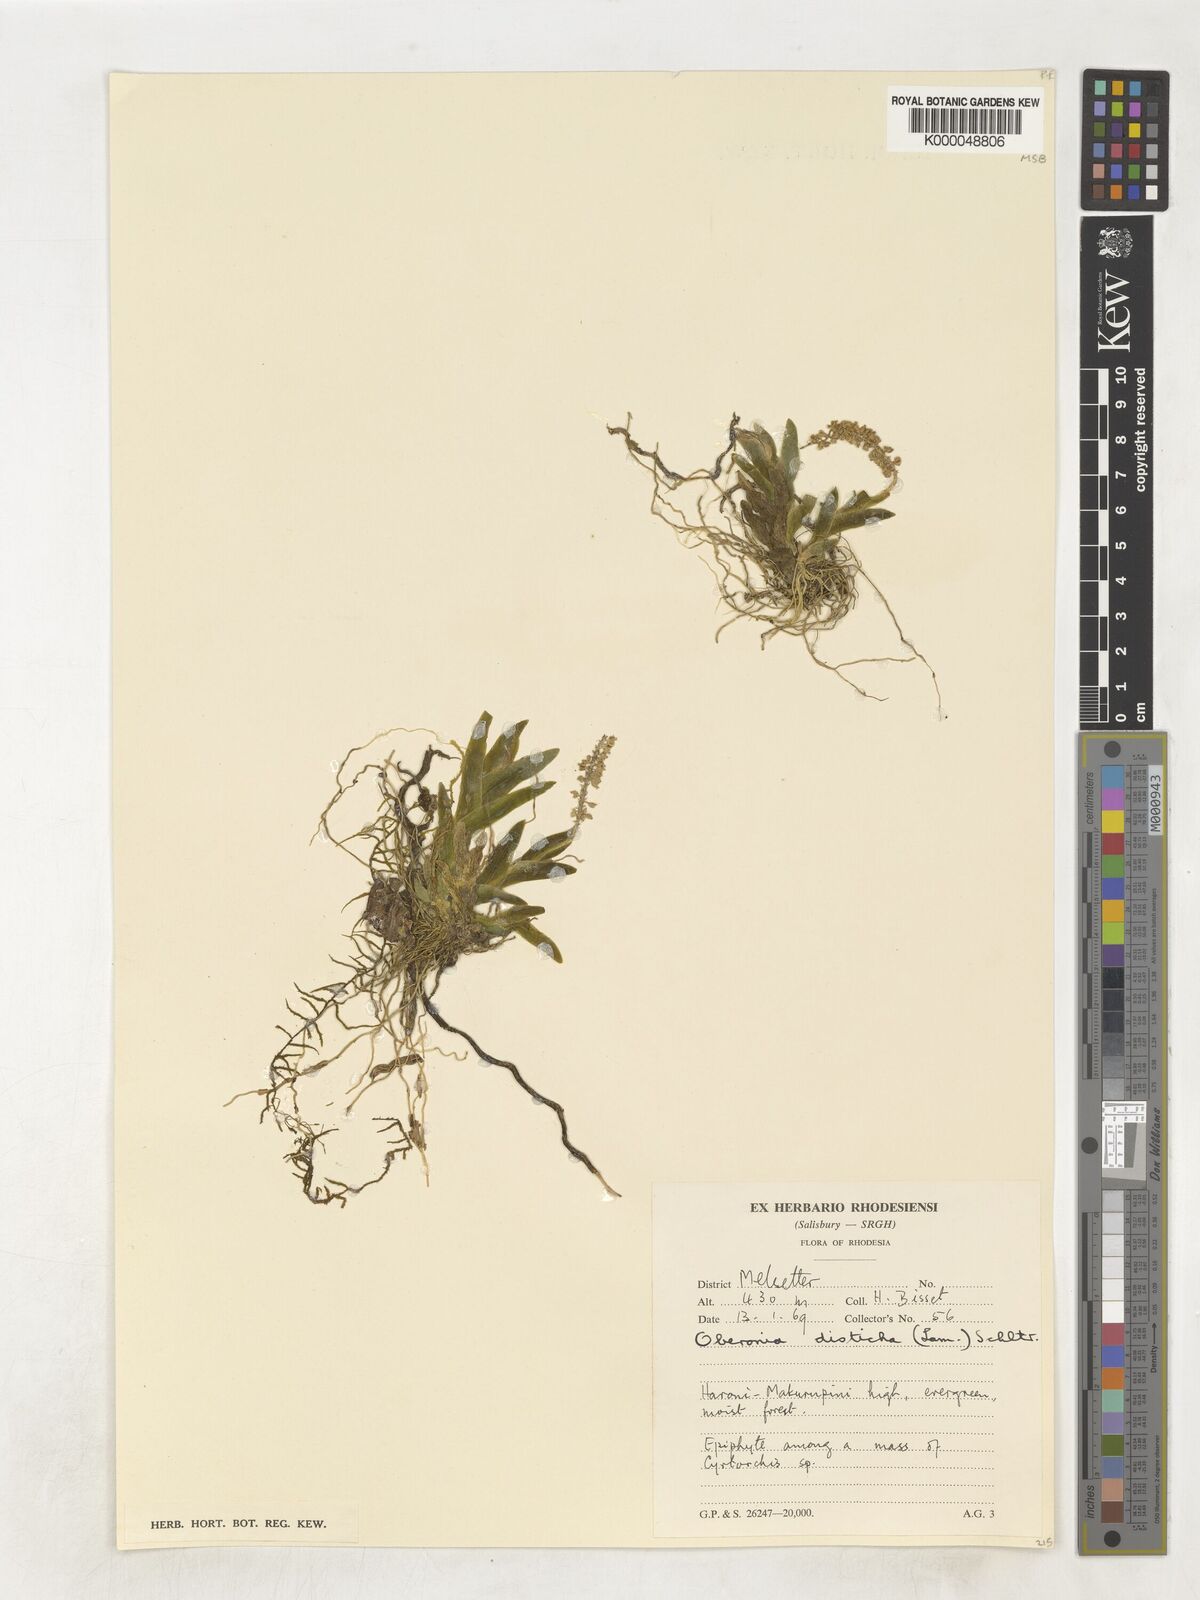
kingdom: Plantae
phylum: Tracheophyta
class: Liliopsida
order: Asparagales
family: Orchidaceae
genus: Oberonia
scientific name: Oberonia disticha
